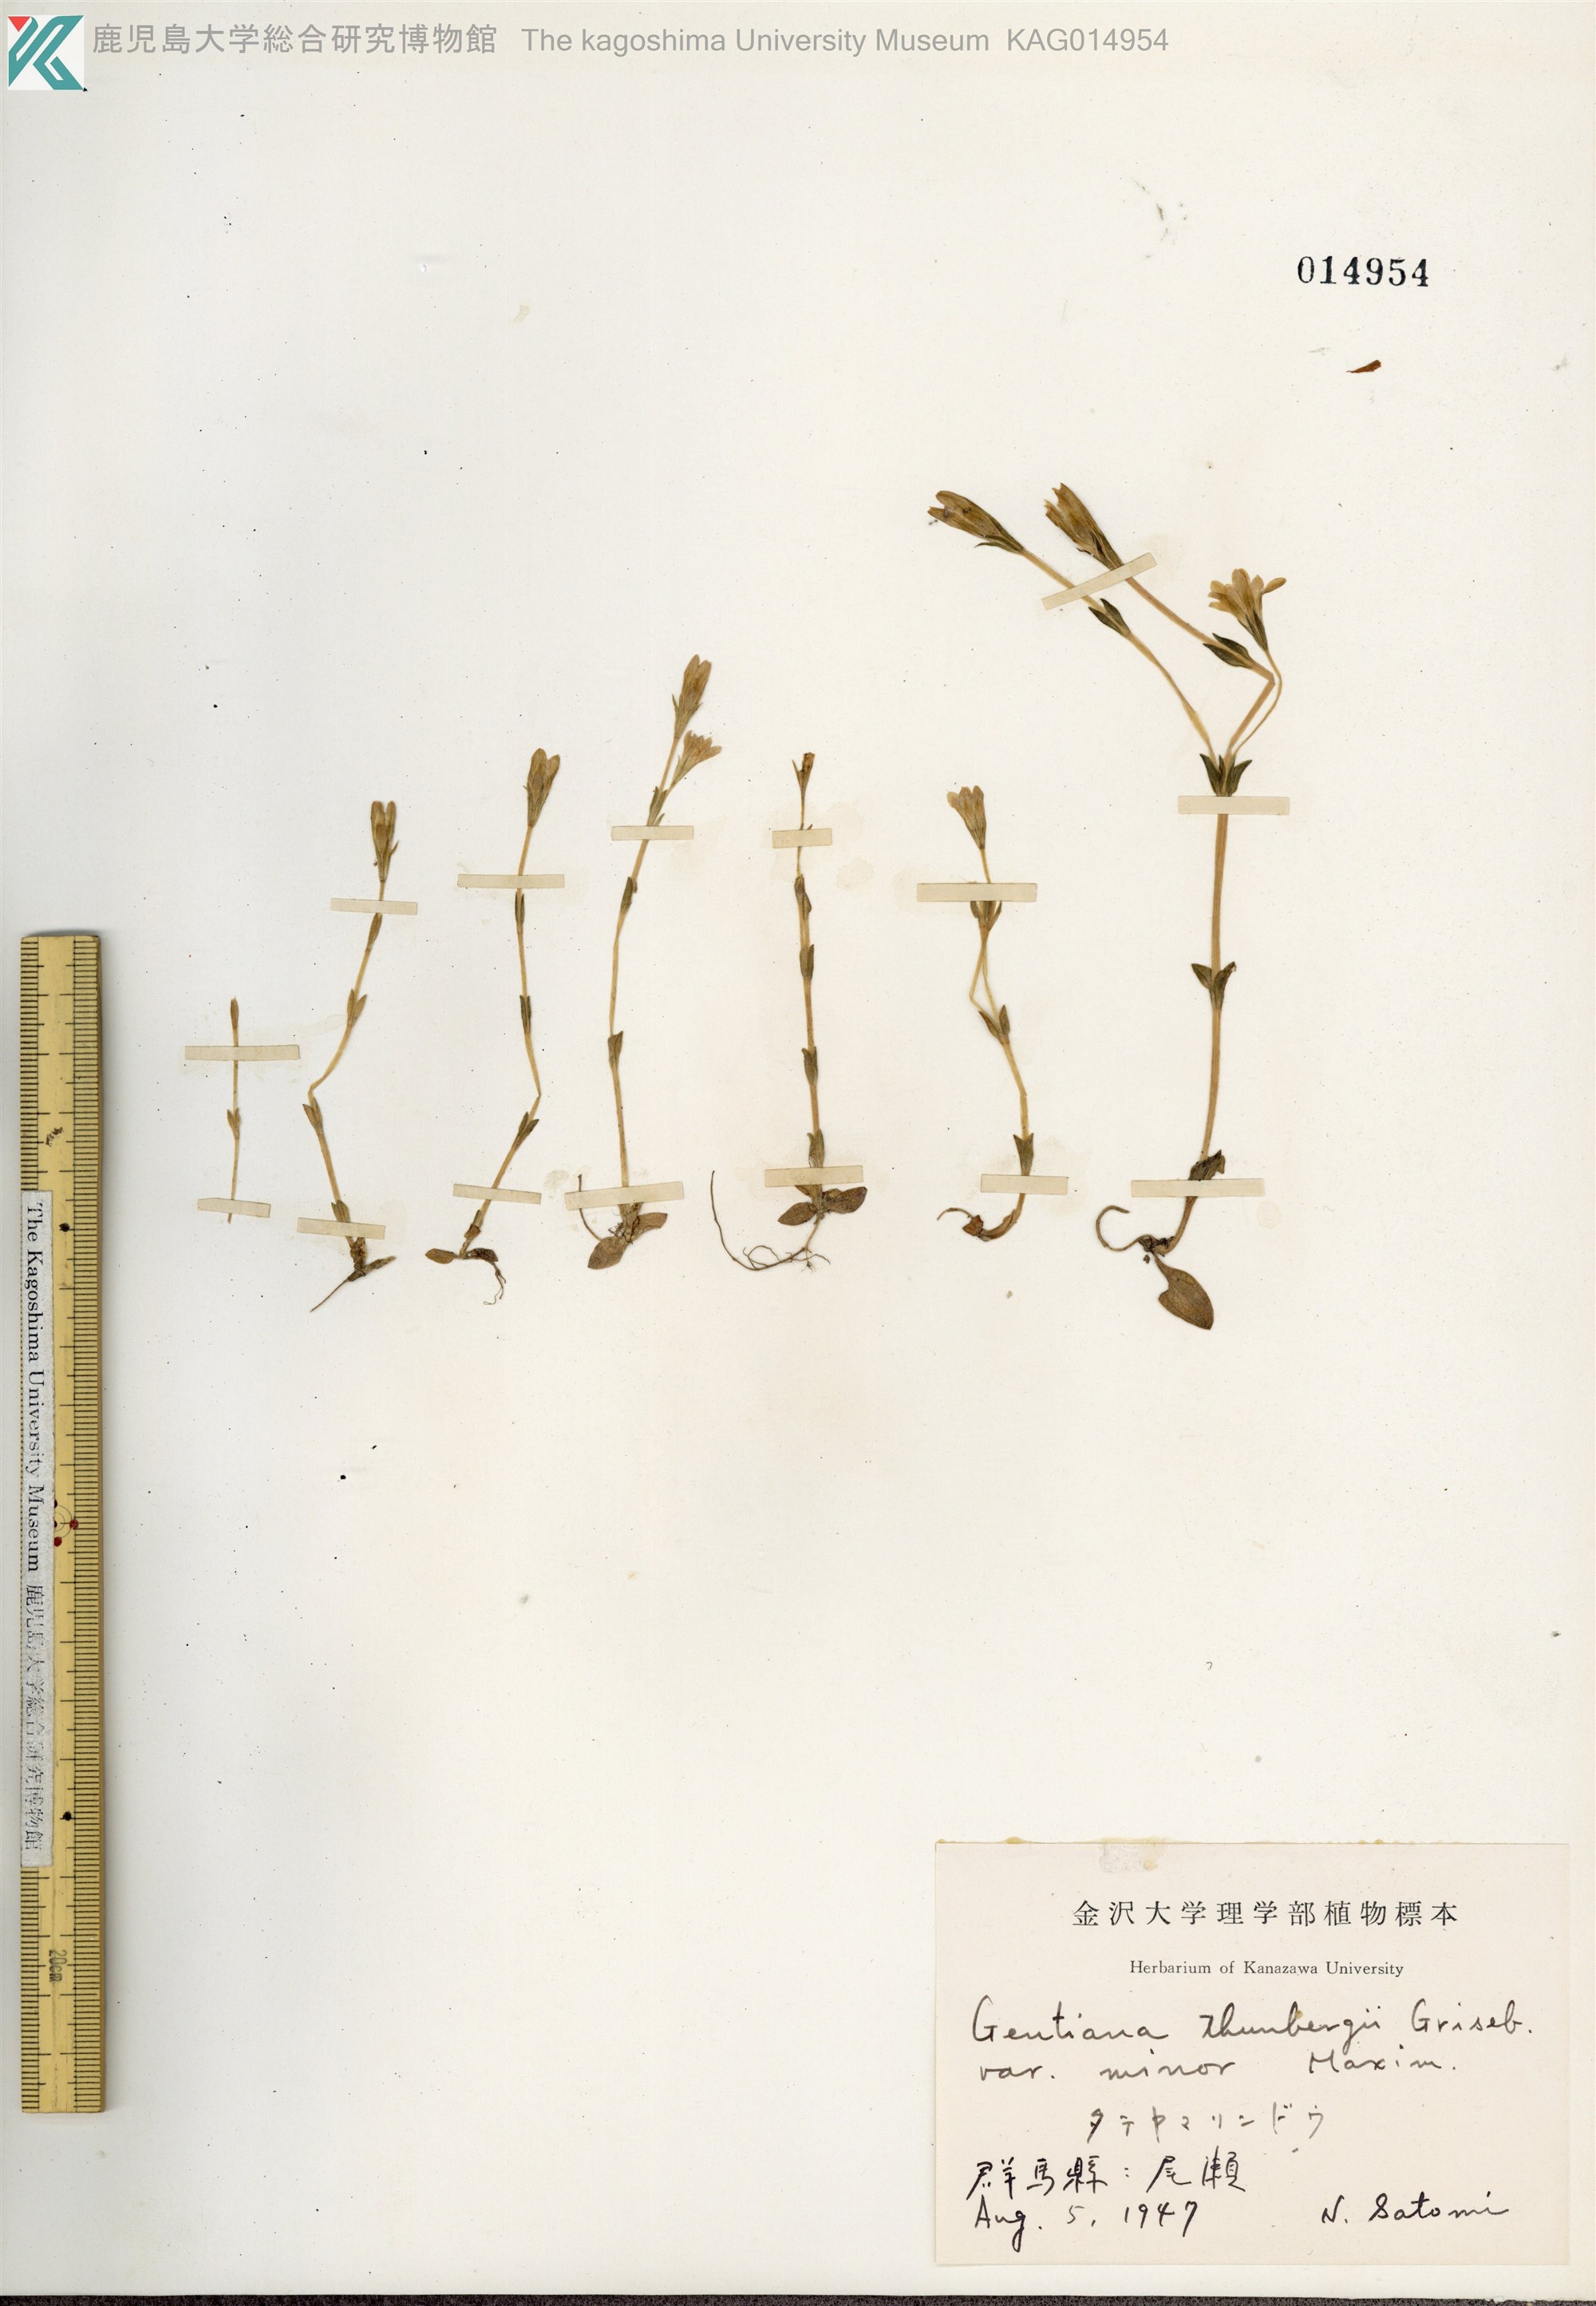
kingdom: Plantae
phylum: Tracheophyta
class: Magnoliopsida
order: Gentianales
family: Gentianaceae
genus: Gentiana
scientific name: Gentiana thunbergii
